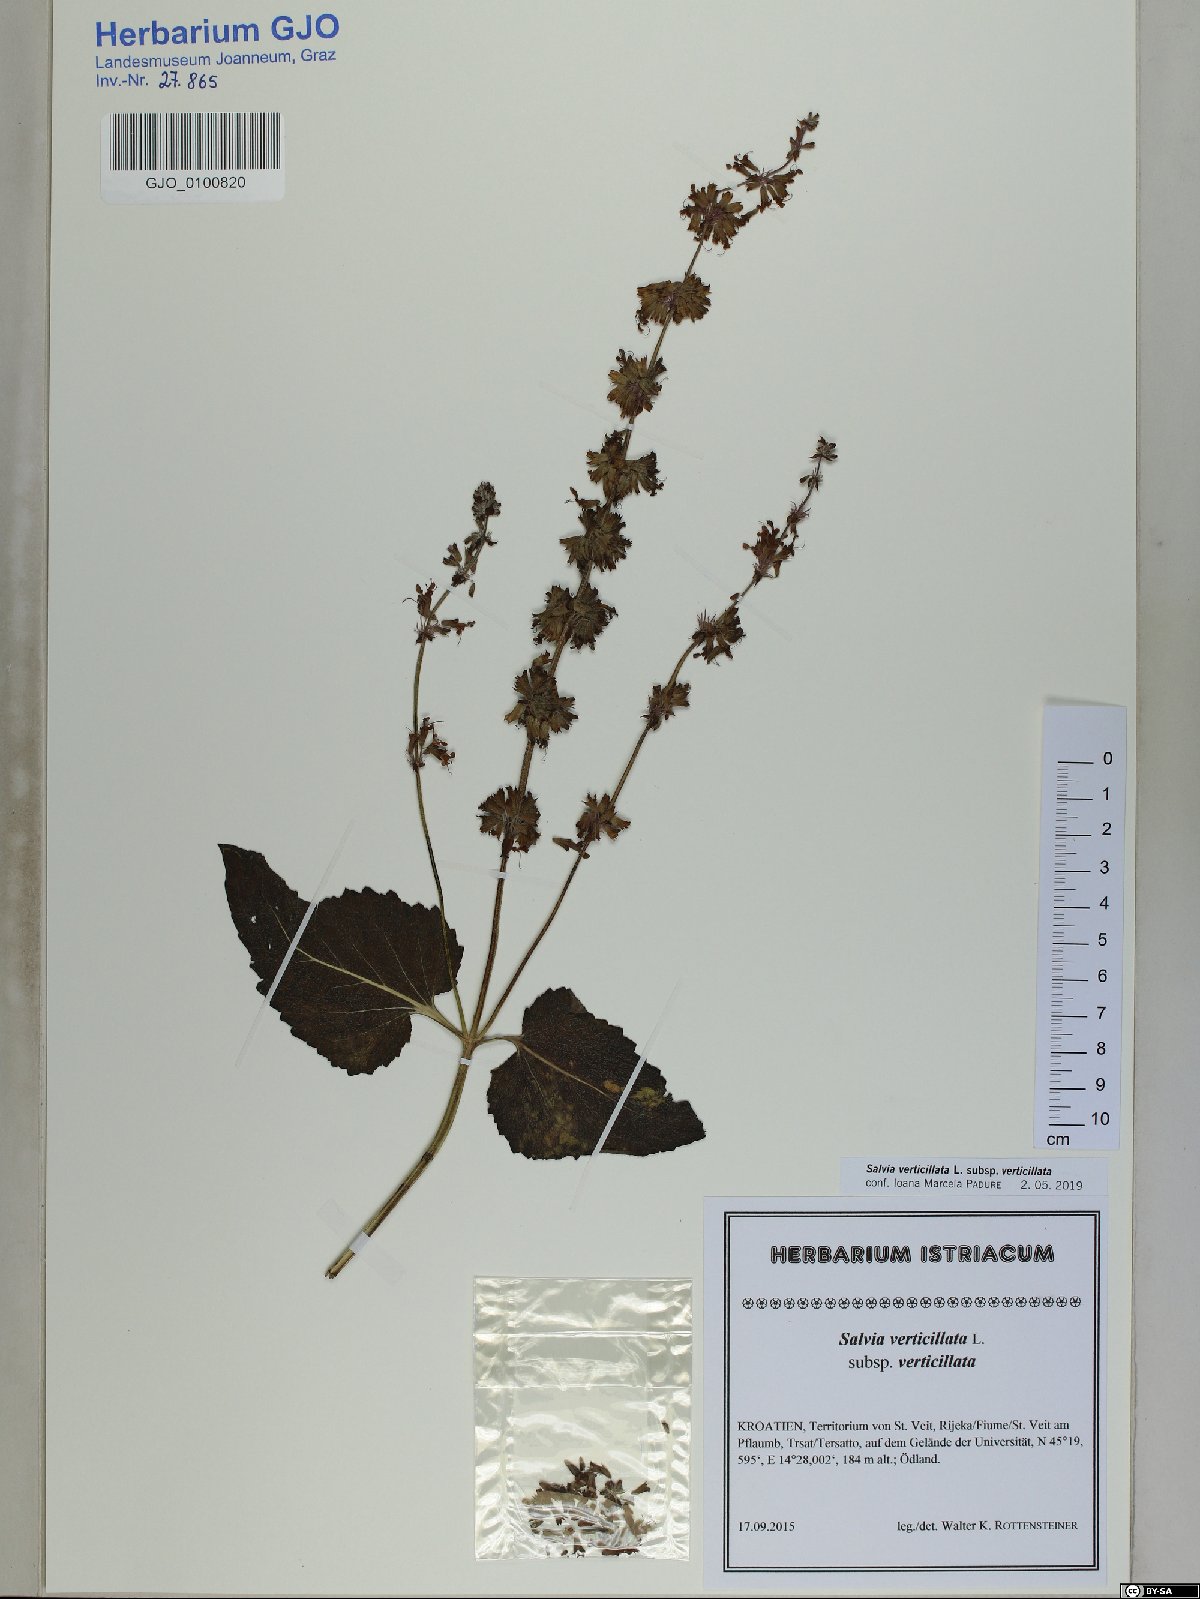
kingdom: Plantae
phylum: Tracheophyta
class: Magnoliopsida
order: Lamiales
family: Lamiaceae
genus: Salvia
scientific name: Salvia verticillata
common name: Whorled clary
